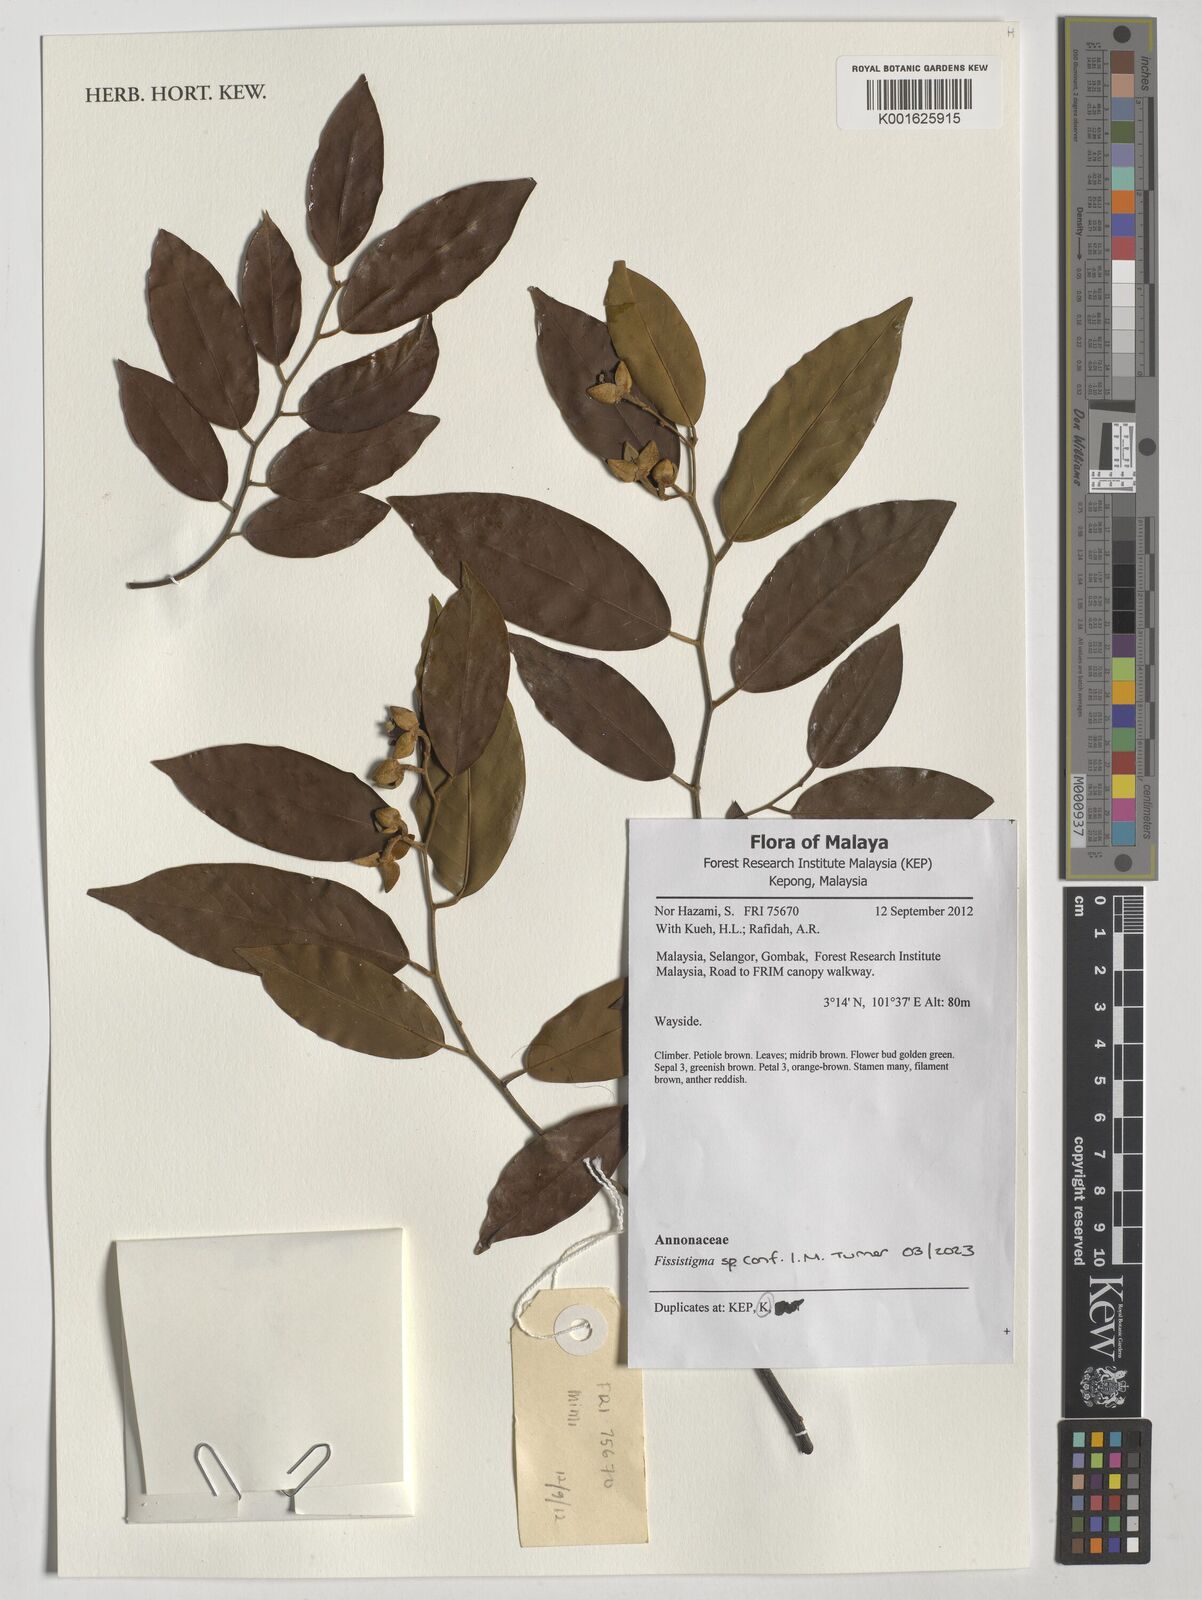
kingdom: Plantae
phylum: Tracheophyta
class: Magnoliopsida
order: Magnoliales
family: Annonaceae
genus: Fissistigma
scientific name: Fissistigma
